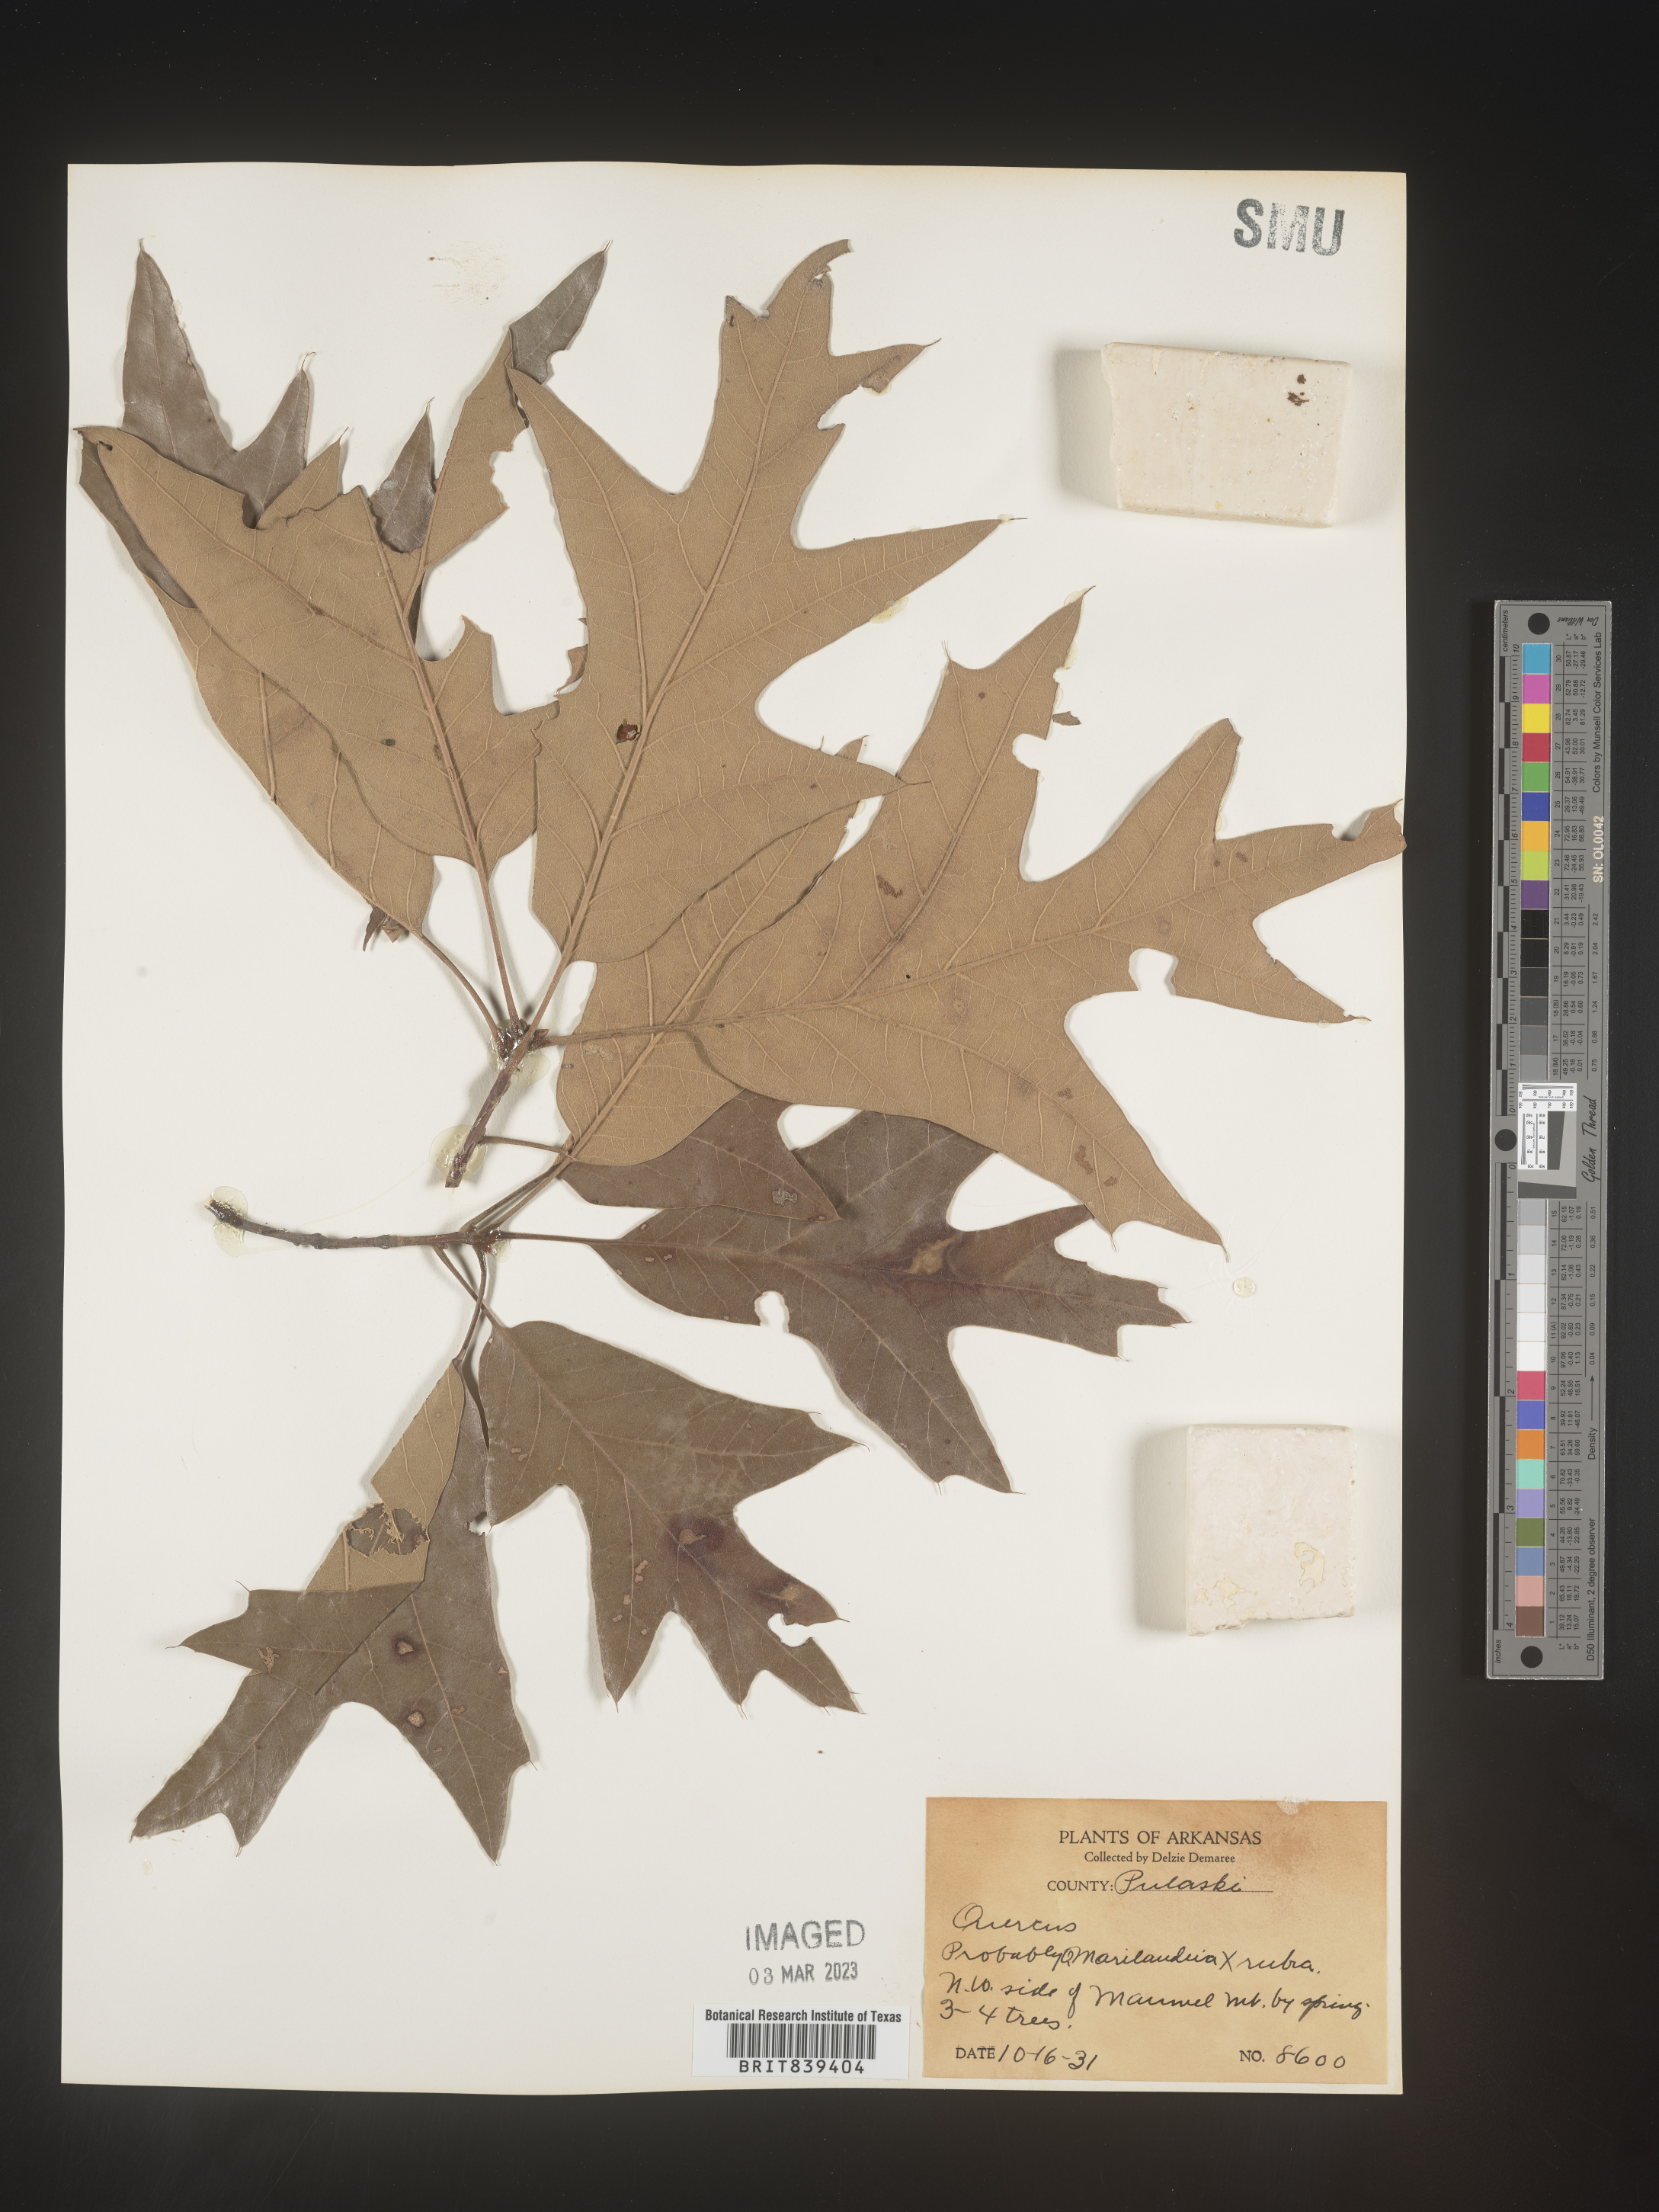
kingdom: Plantae
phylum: Tracheophyta
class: Magnoliopsida
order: Fagales
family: Fagaceae
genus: Quercus
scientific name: Quercus marilandica
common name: Blackjack oak
